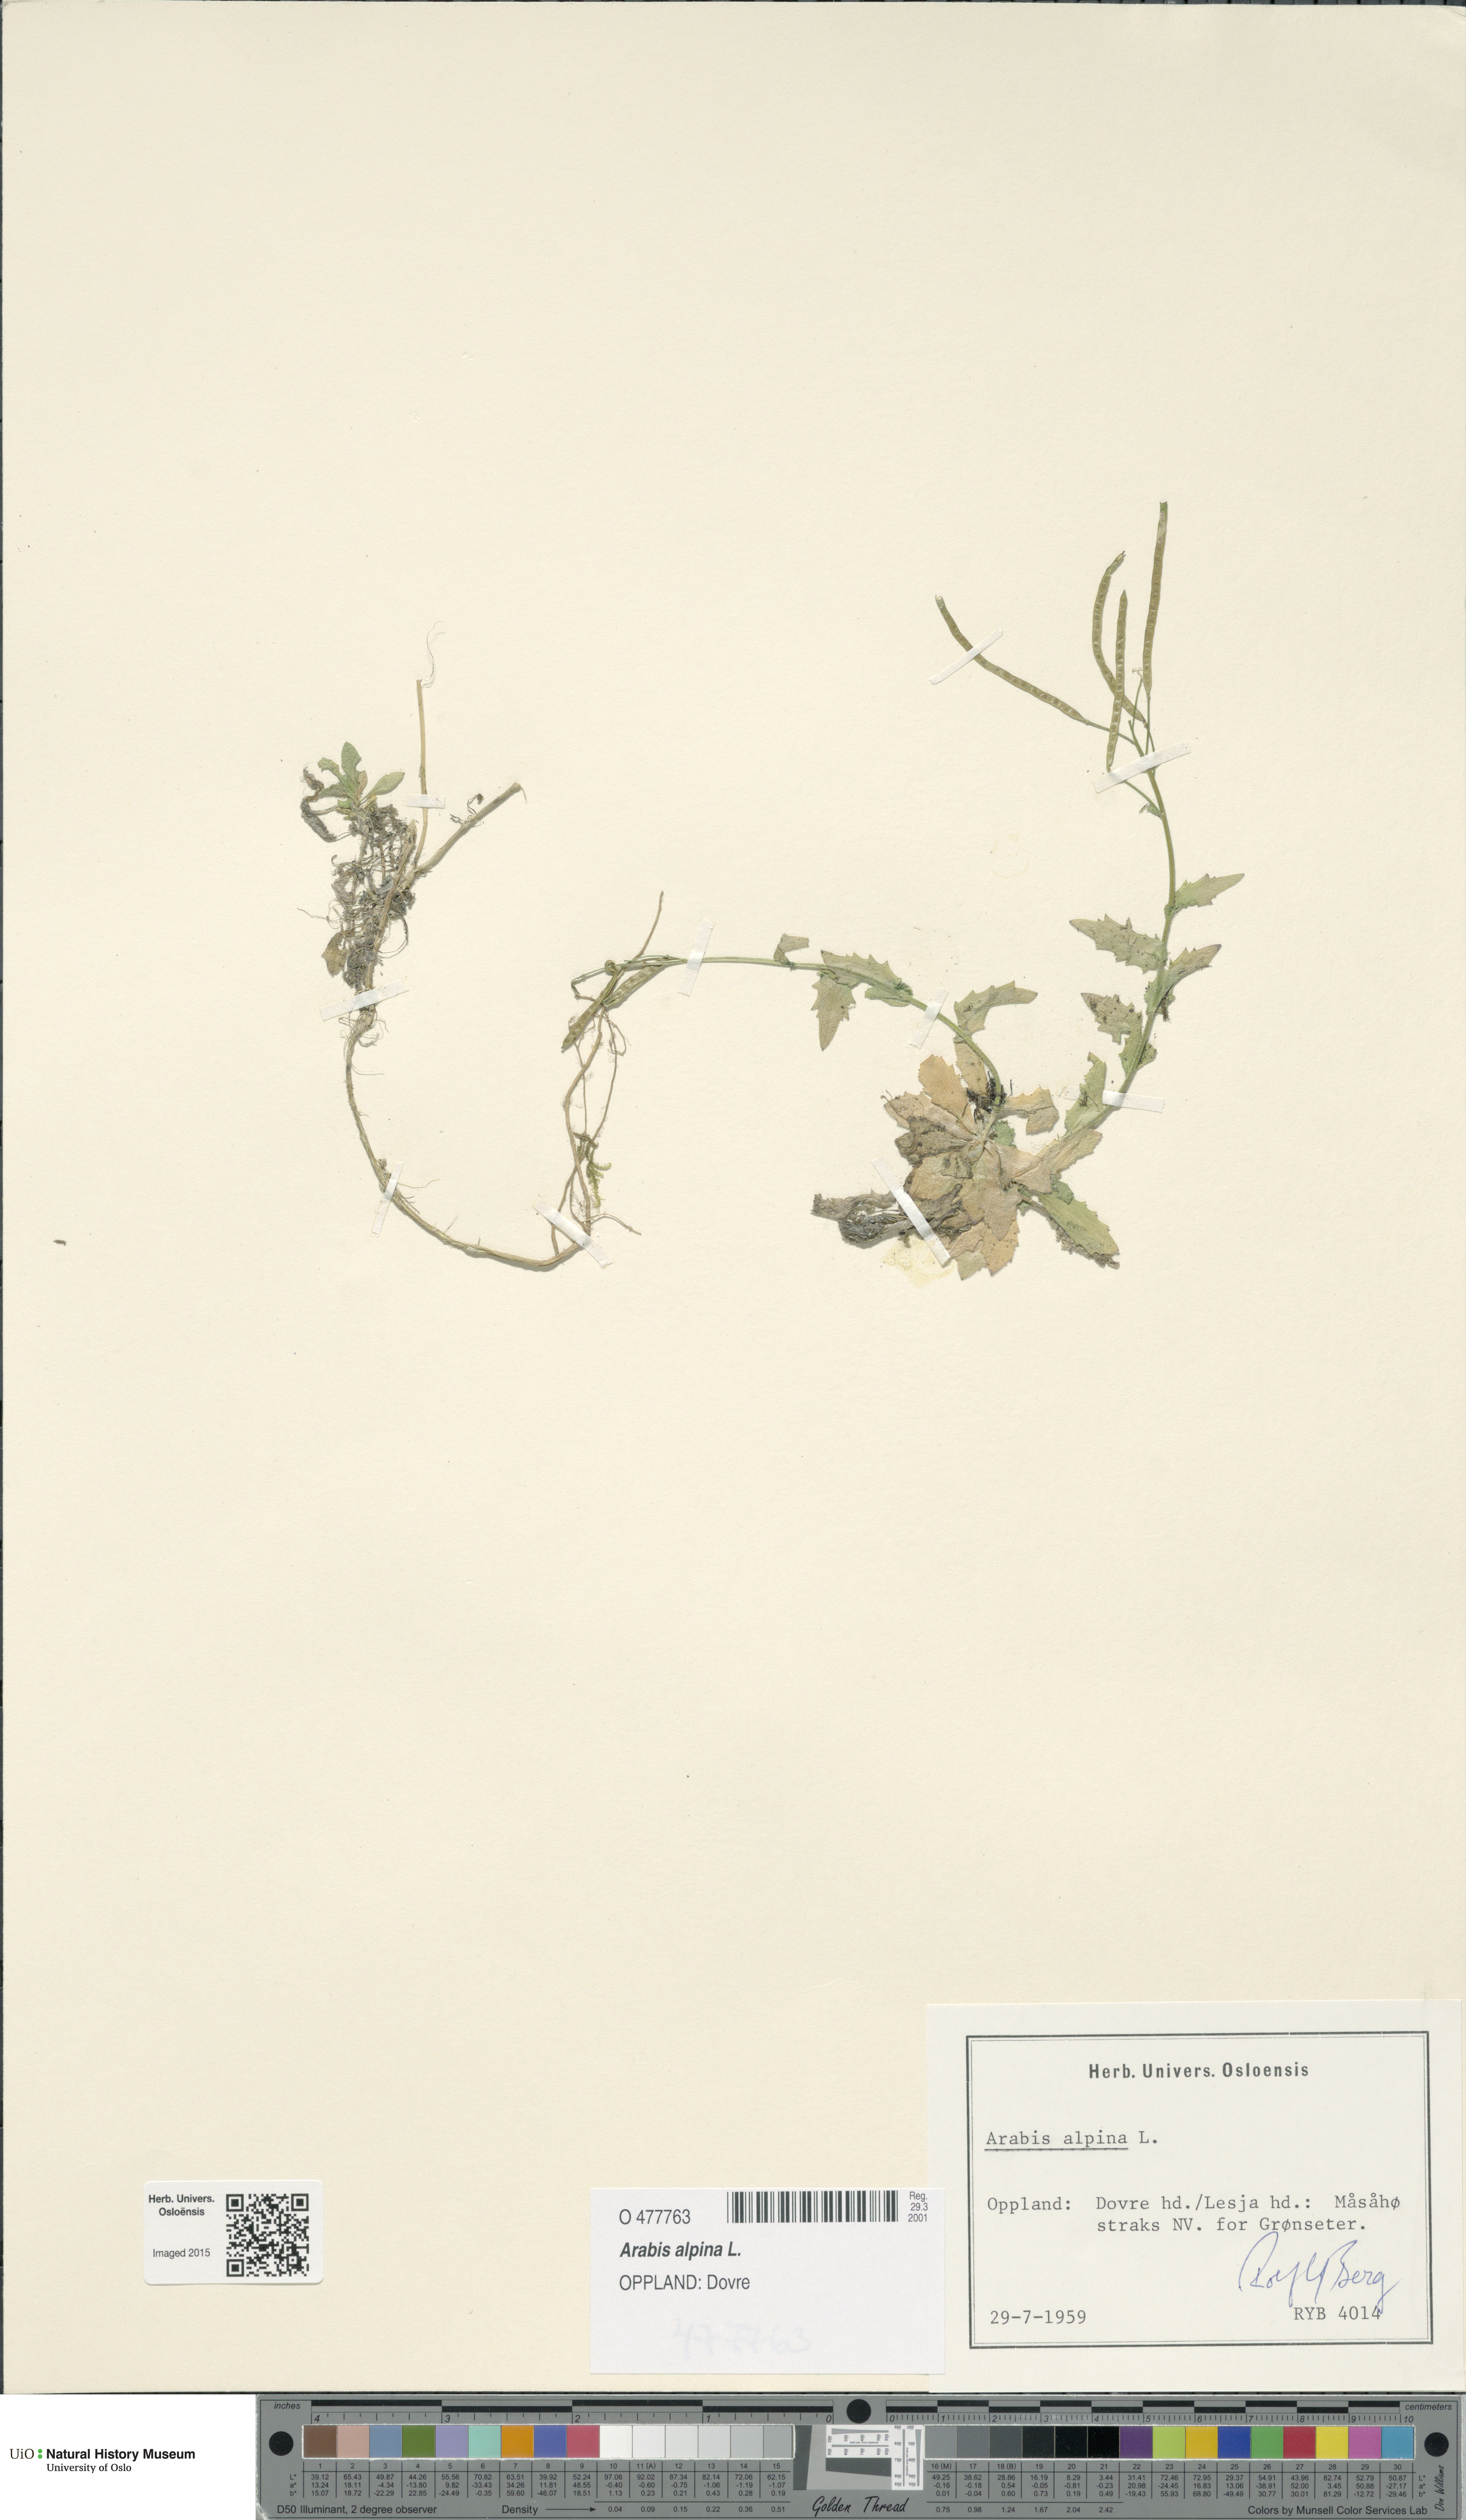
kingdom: Plantae
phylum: Tracheophyta
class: Magnoliopsida
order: Brassicales
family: Brassicaceae
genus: Arabis
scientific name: Arabis alpina
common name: Alpine rock-cress
